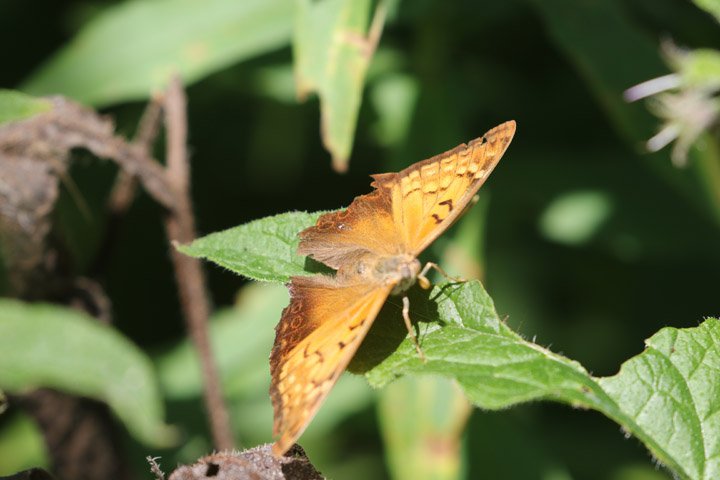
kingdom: Animalia
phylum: Arthropoda
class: Insecta
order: Lepidoptera
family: Nymphalidae
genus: Asterocampa
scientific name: Asterocampa clyton
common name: Tawny Emperor
